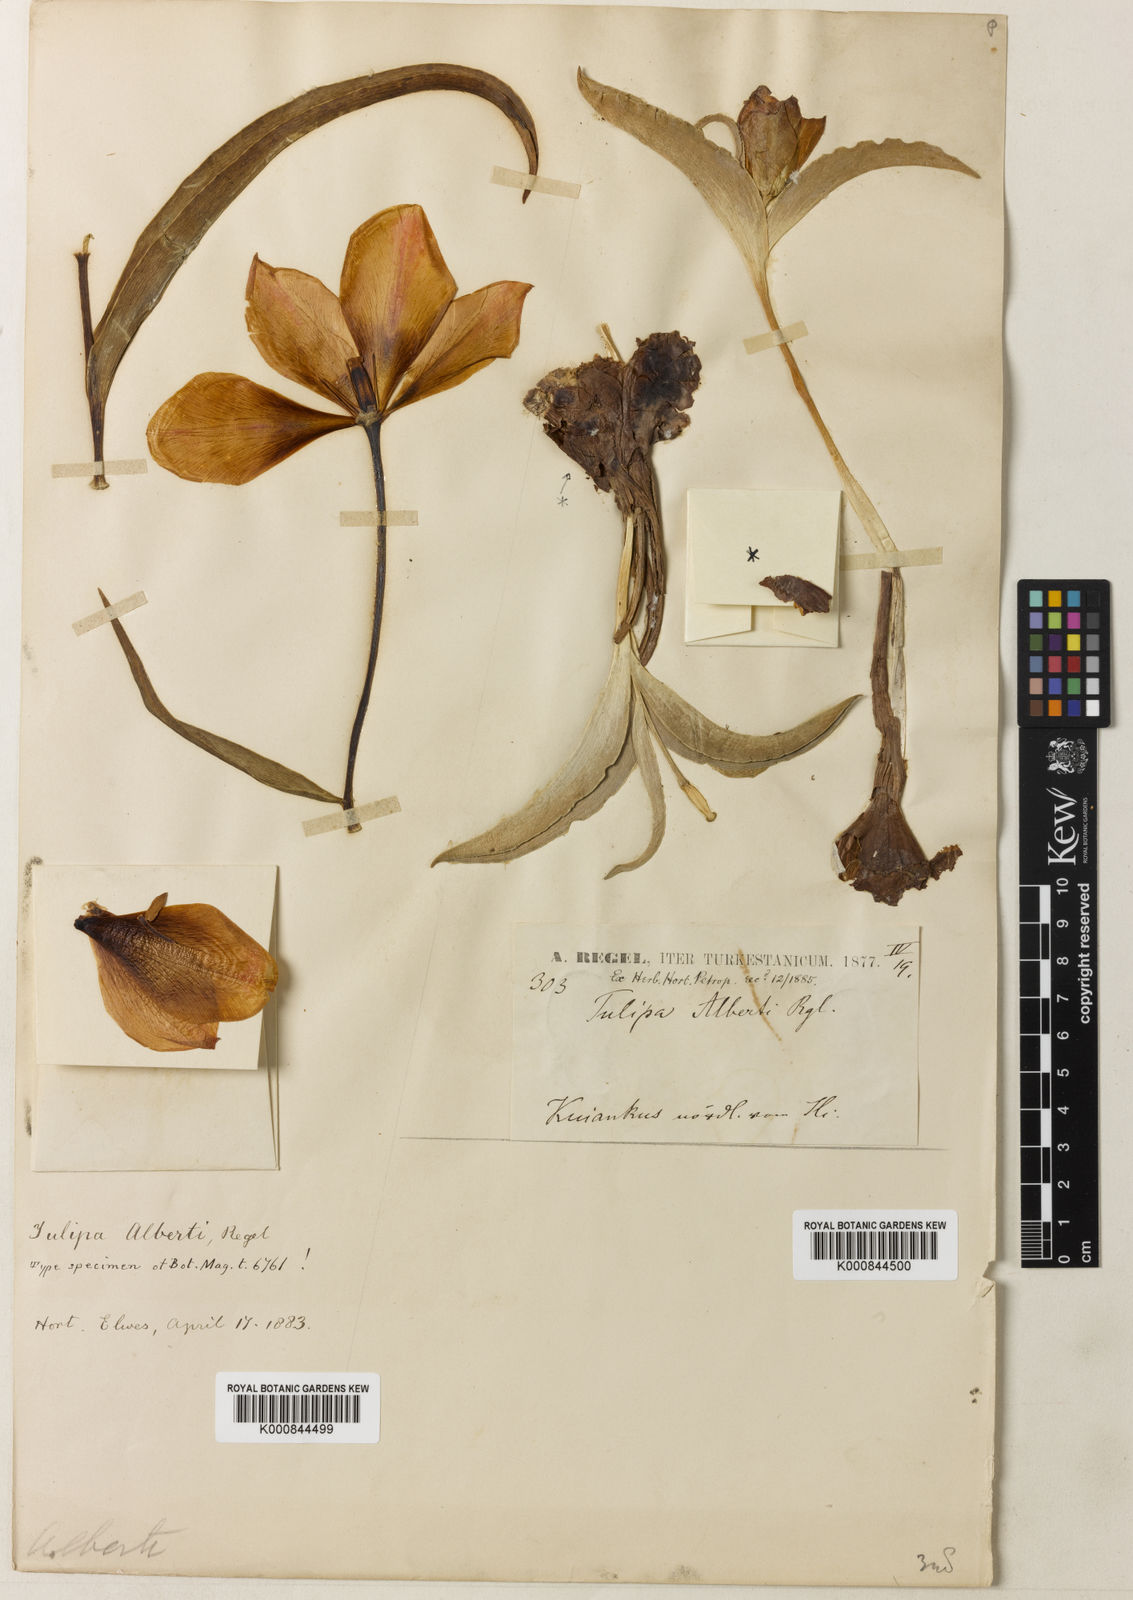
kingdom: Plantae
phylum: Tracheophyta
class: Liliopsida
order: Liliales
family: Liliaceae
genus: Tulipa
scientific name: Tulipa alberti
